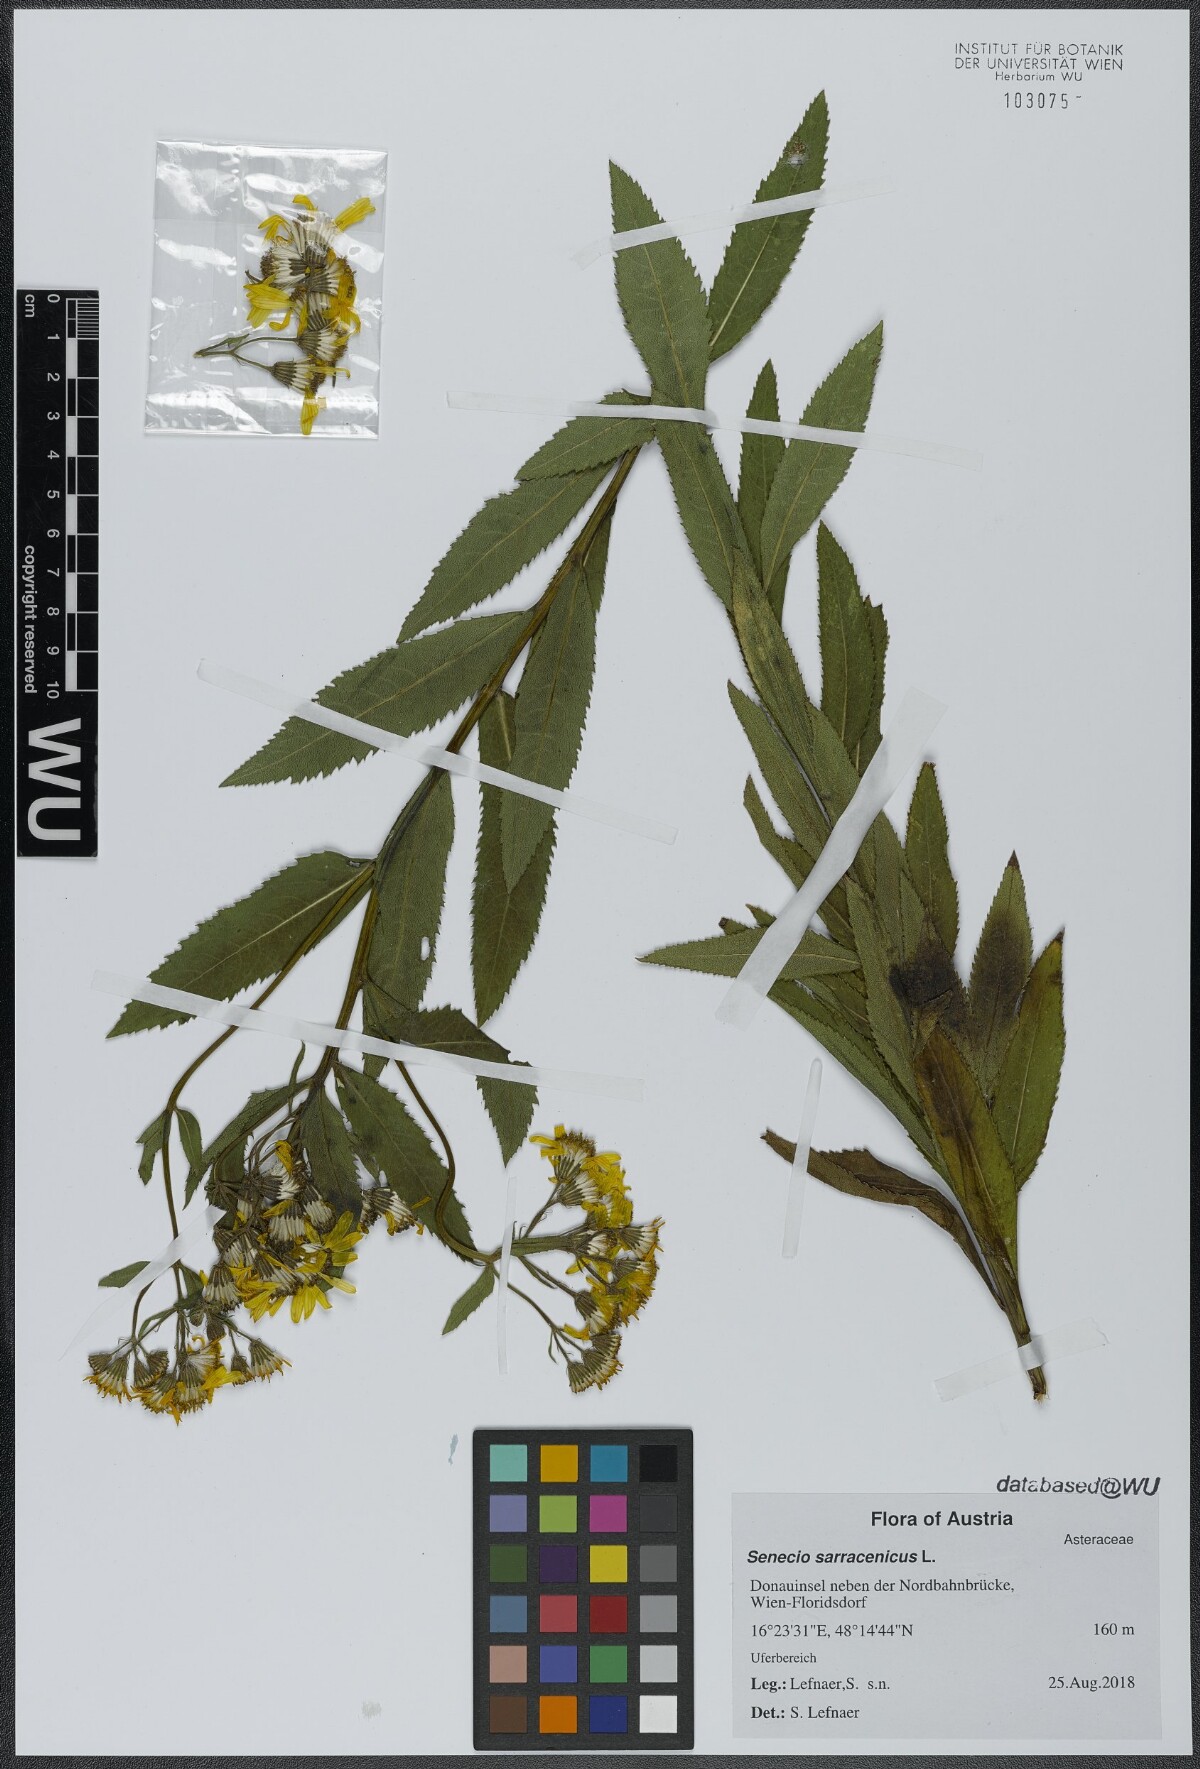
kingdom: Plantae
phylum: Tracheophyta
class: Magnoliopsida
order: Asterales
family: Asteraceae
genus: Senecio
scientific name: Senecio sarracenicus
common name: Broad-leaved ragwort
